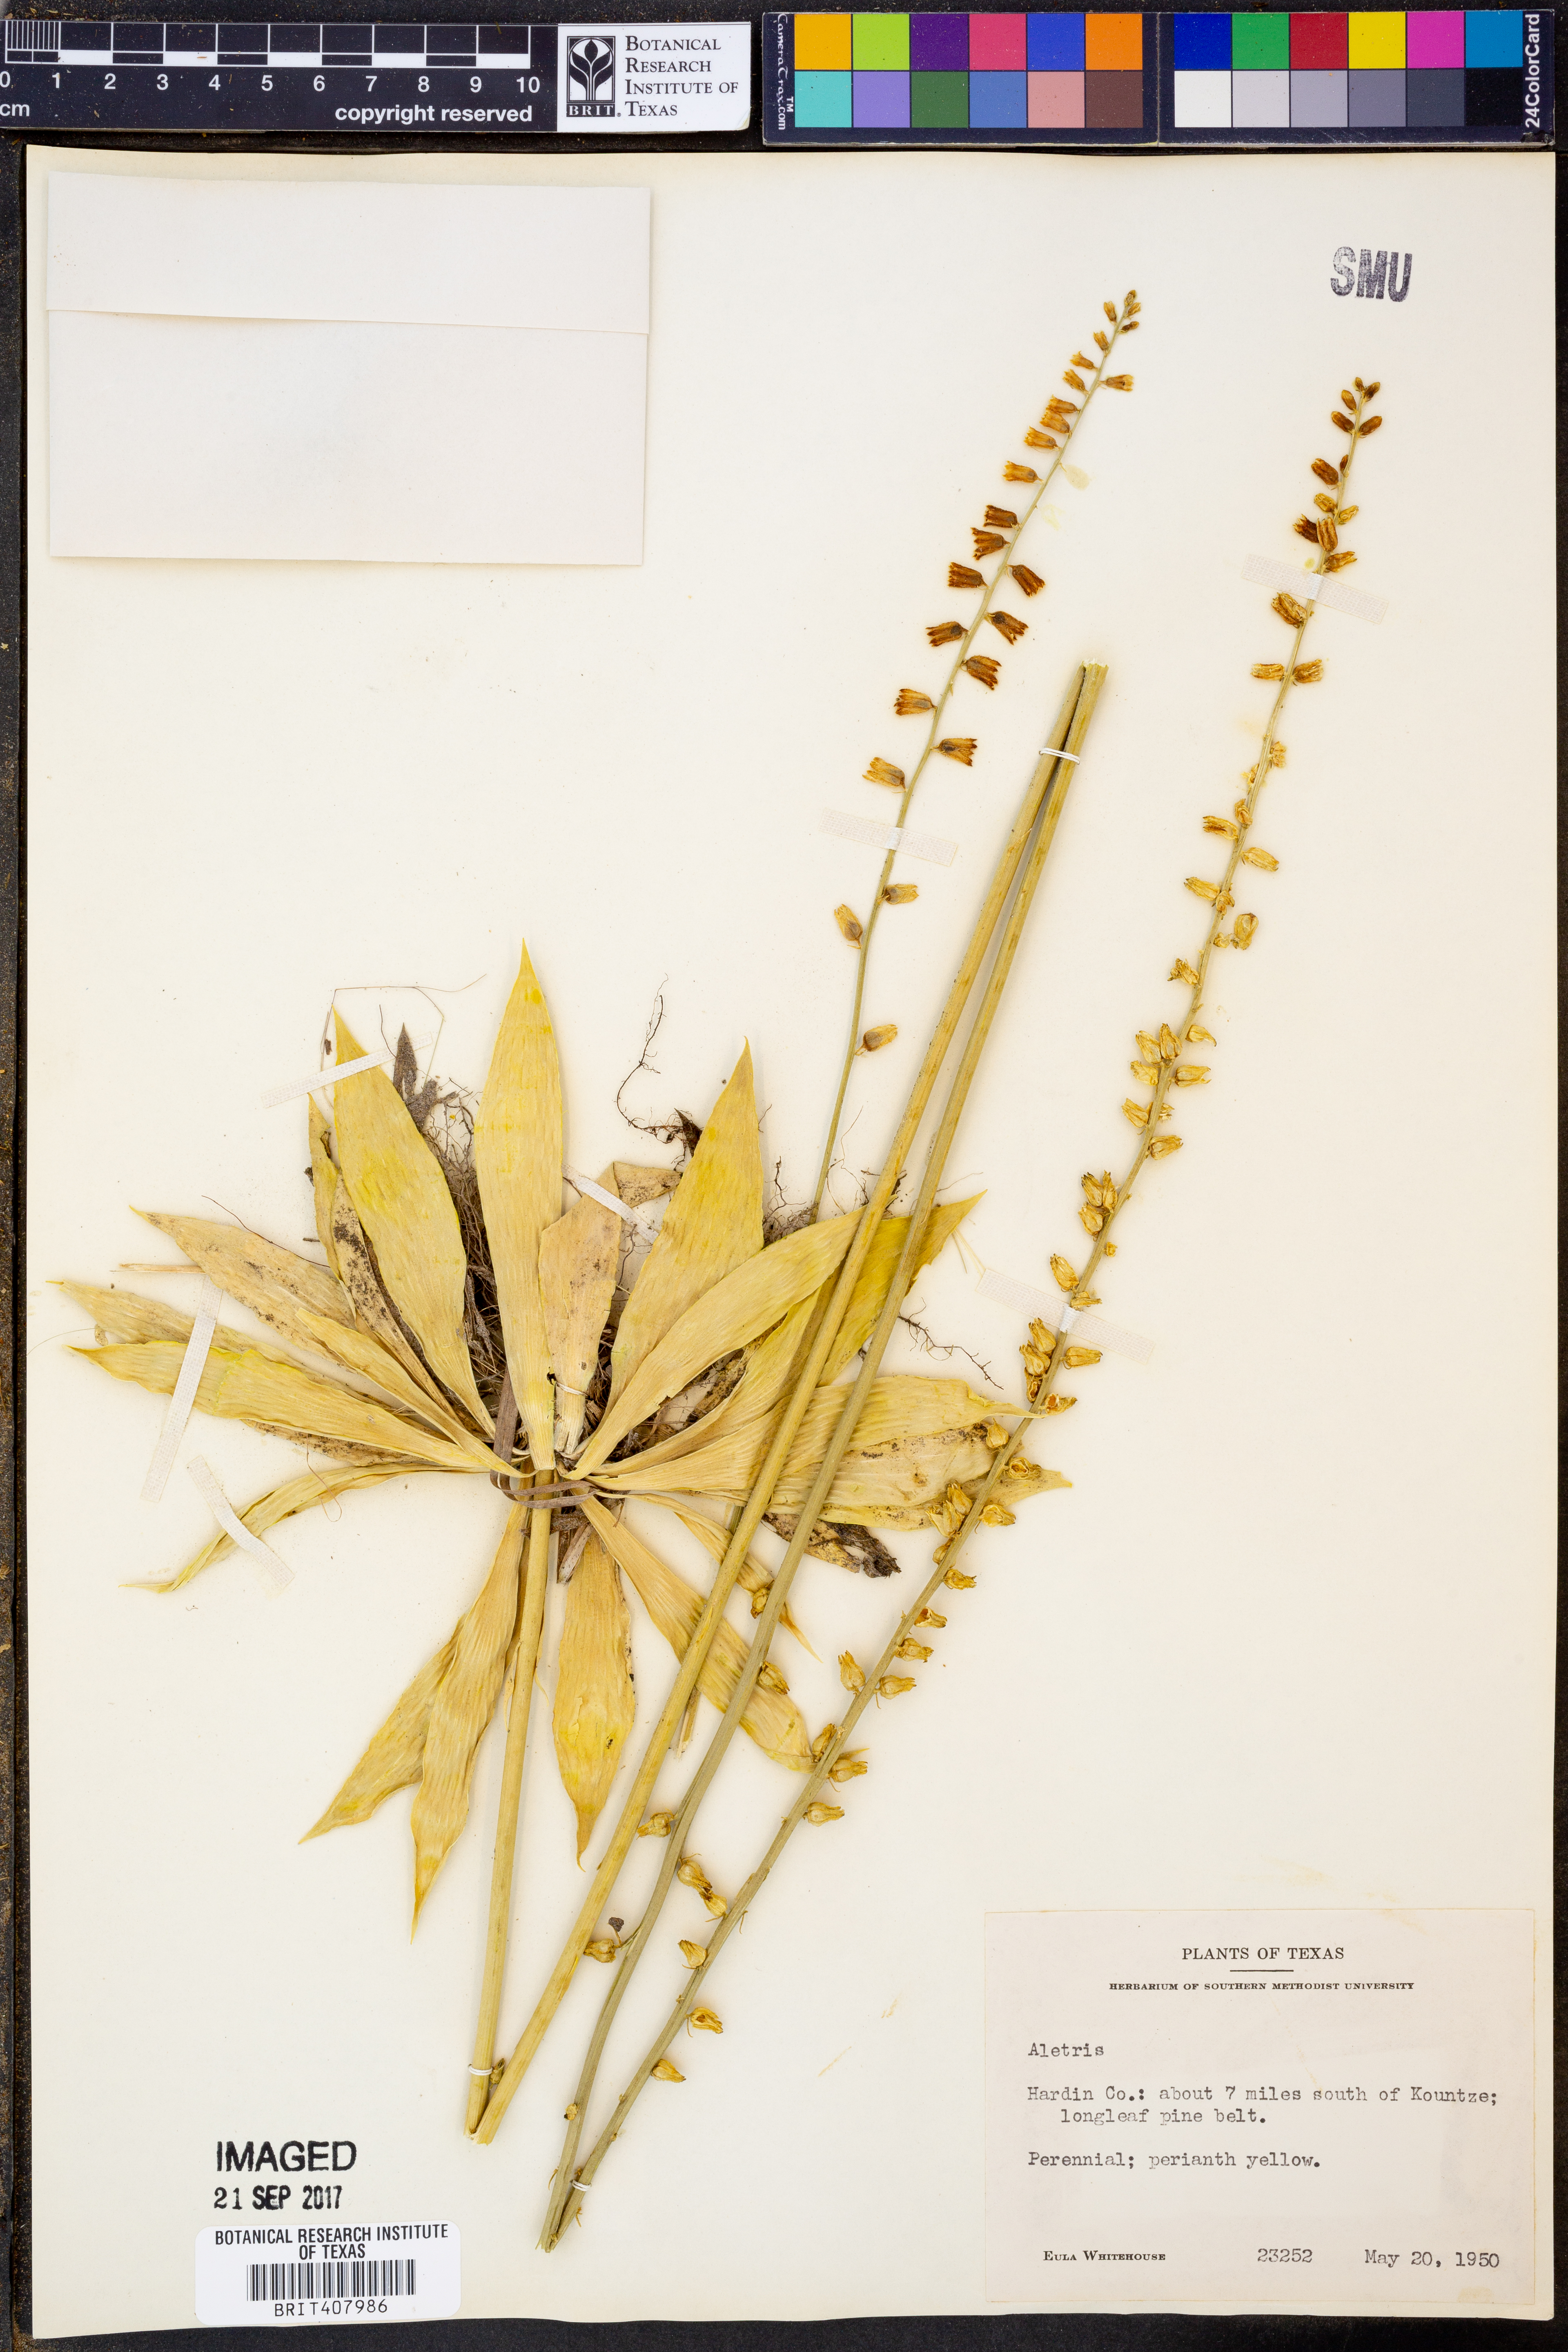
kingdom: Plantae
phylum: Tracheophyta
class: Liliopsida
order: Dioscoreales
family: Nartheciaceae
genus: Aletris
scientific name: Aletris
